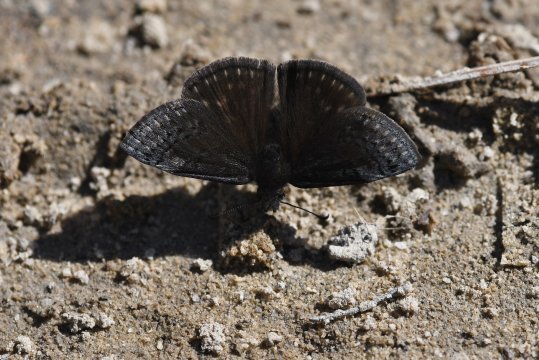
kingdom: Animalia
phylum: Arthropoda
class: Insecta
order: Lepidoptera
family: Hesperiidae
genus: Erynnis
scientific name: Erynnis brizo
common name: Sleepy Duskywing
